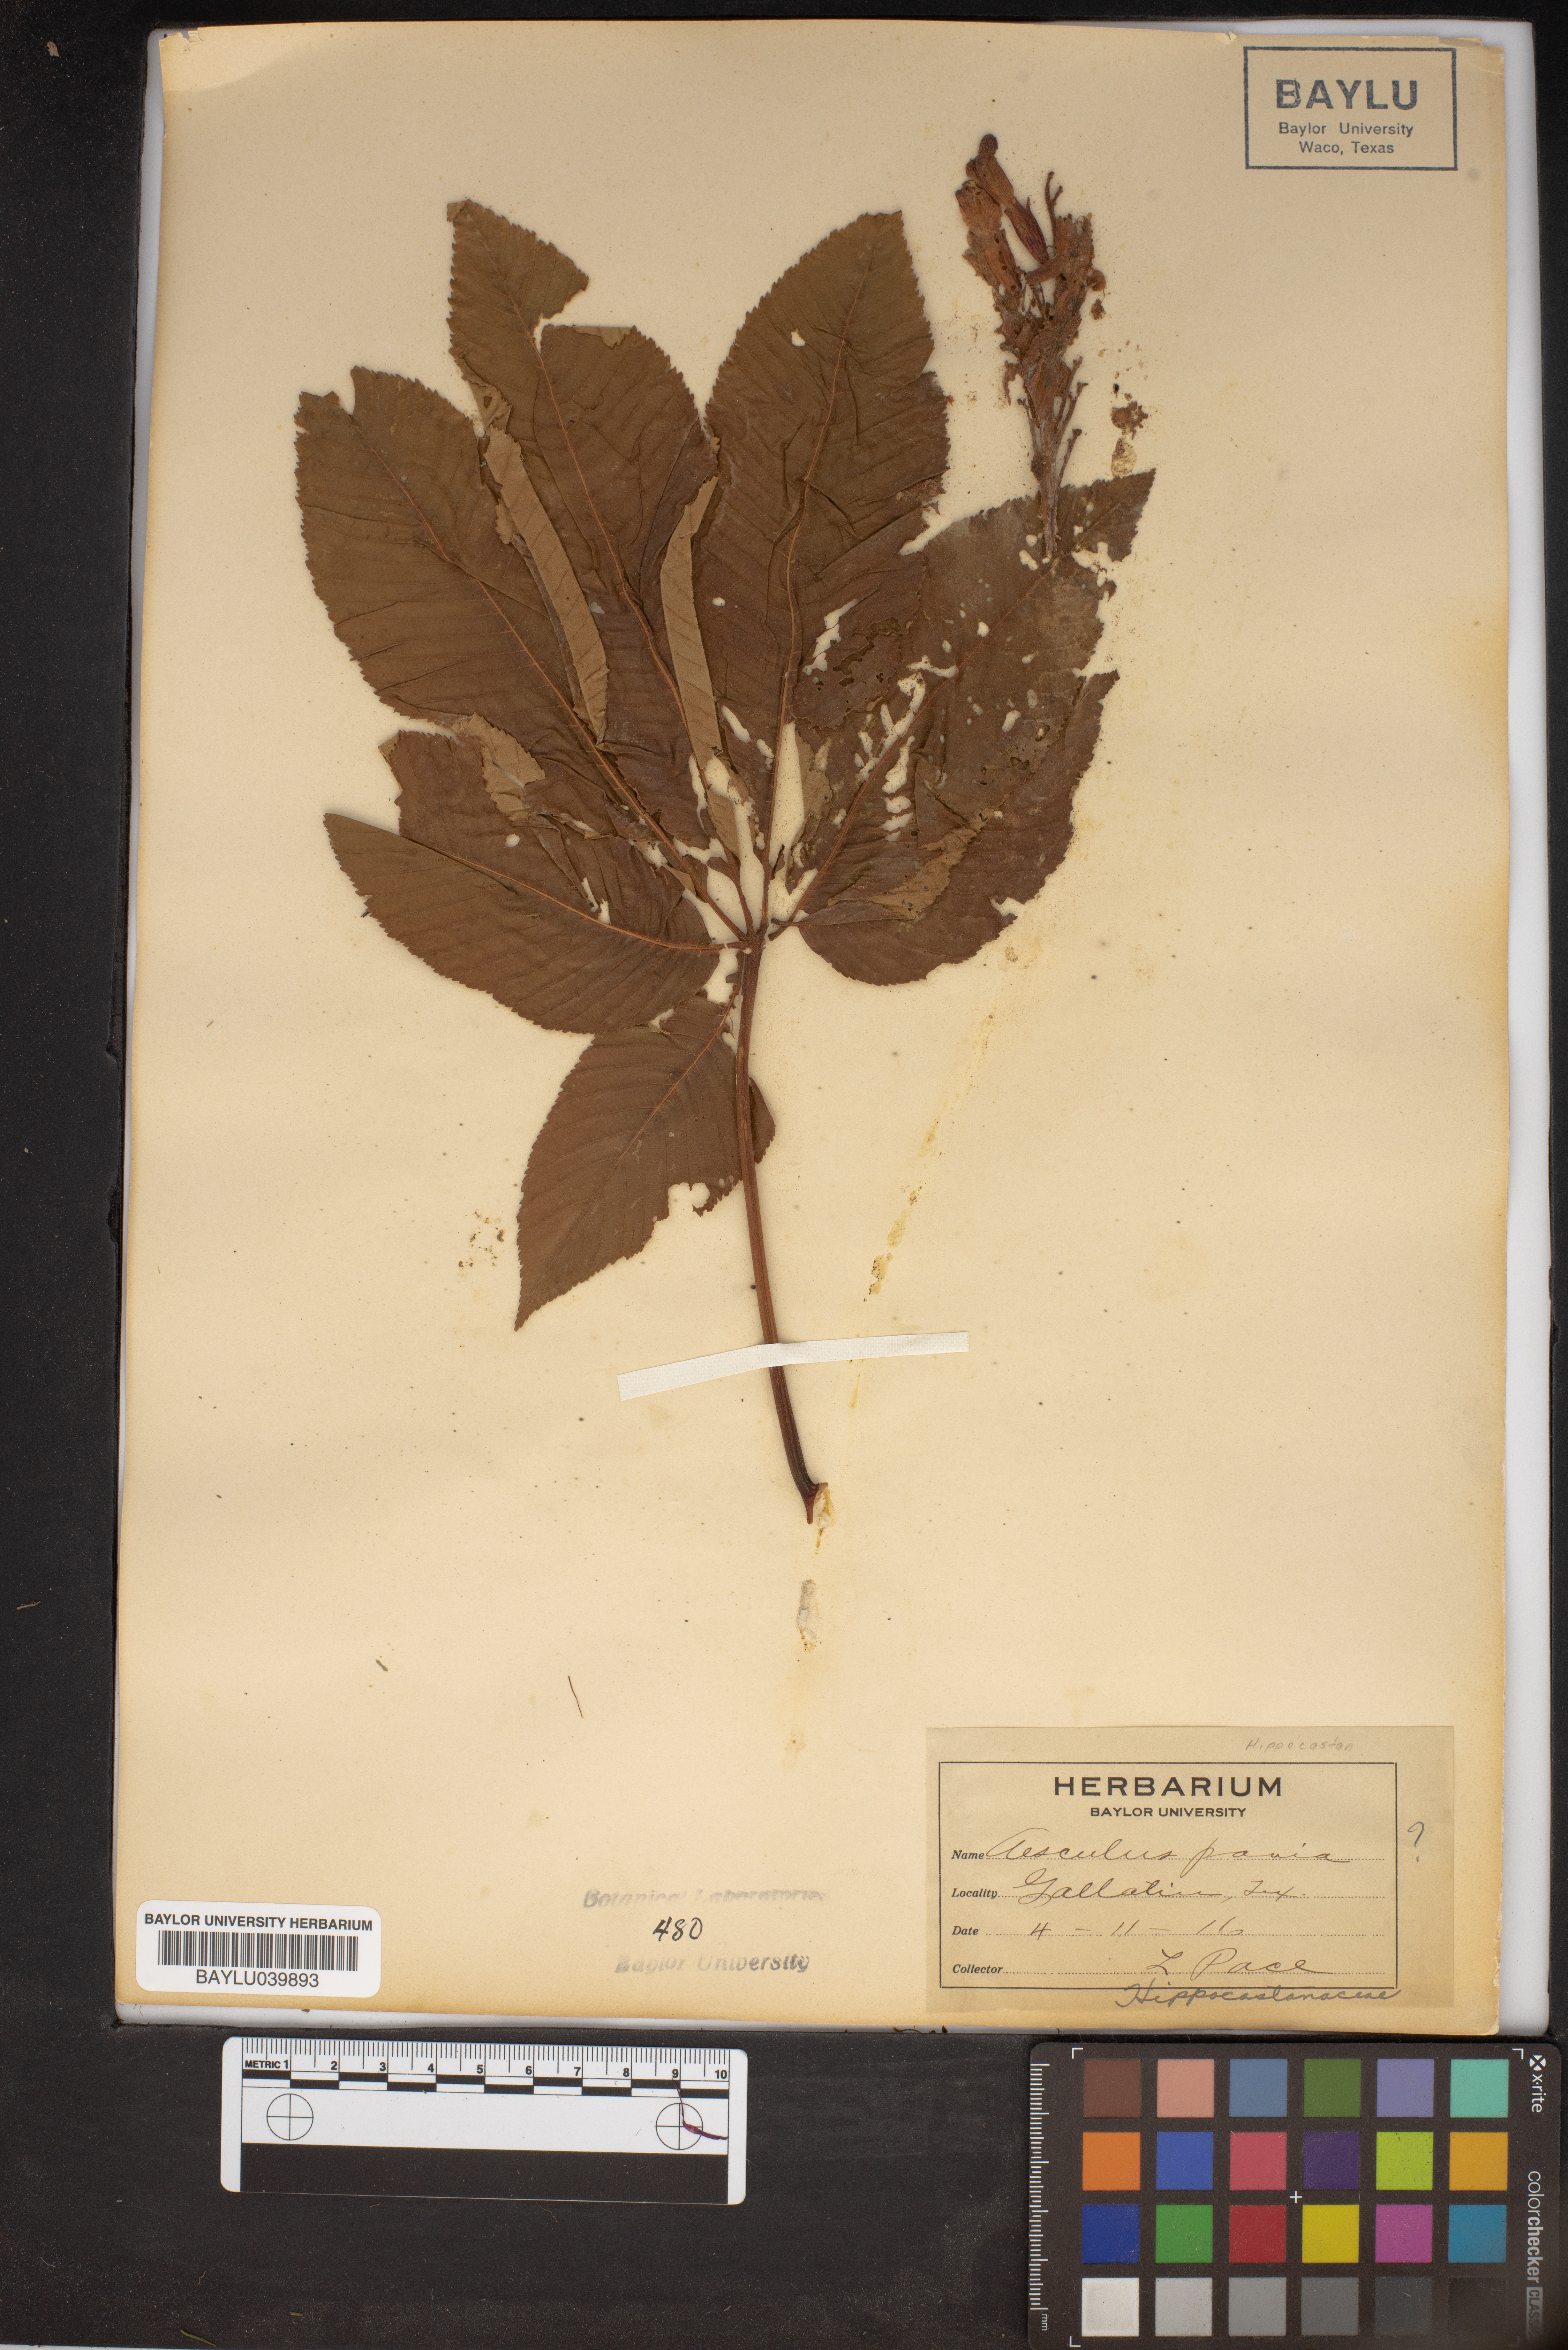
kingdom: Plantae
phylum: Tracheophyta
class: Magnoliopsida
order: Sapindales
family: Sapindaceae
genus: Aesculus
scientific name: Aesculus pavia
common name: Red buckeye
